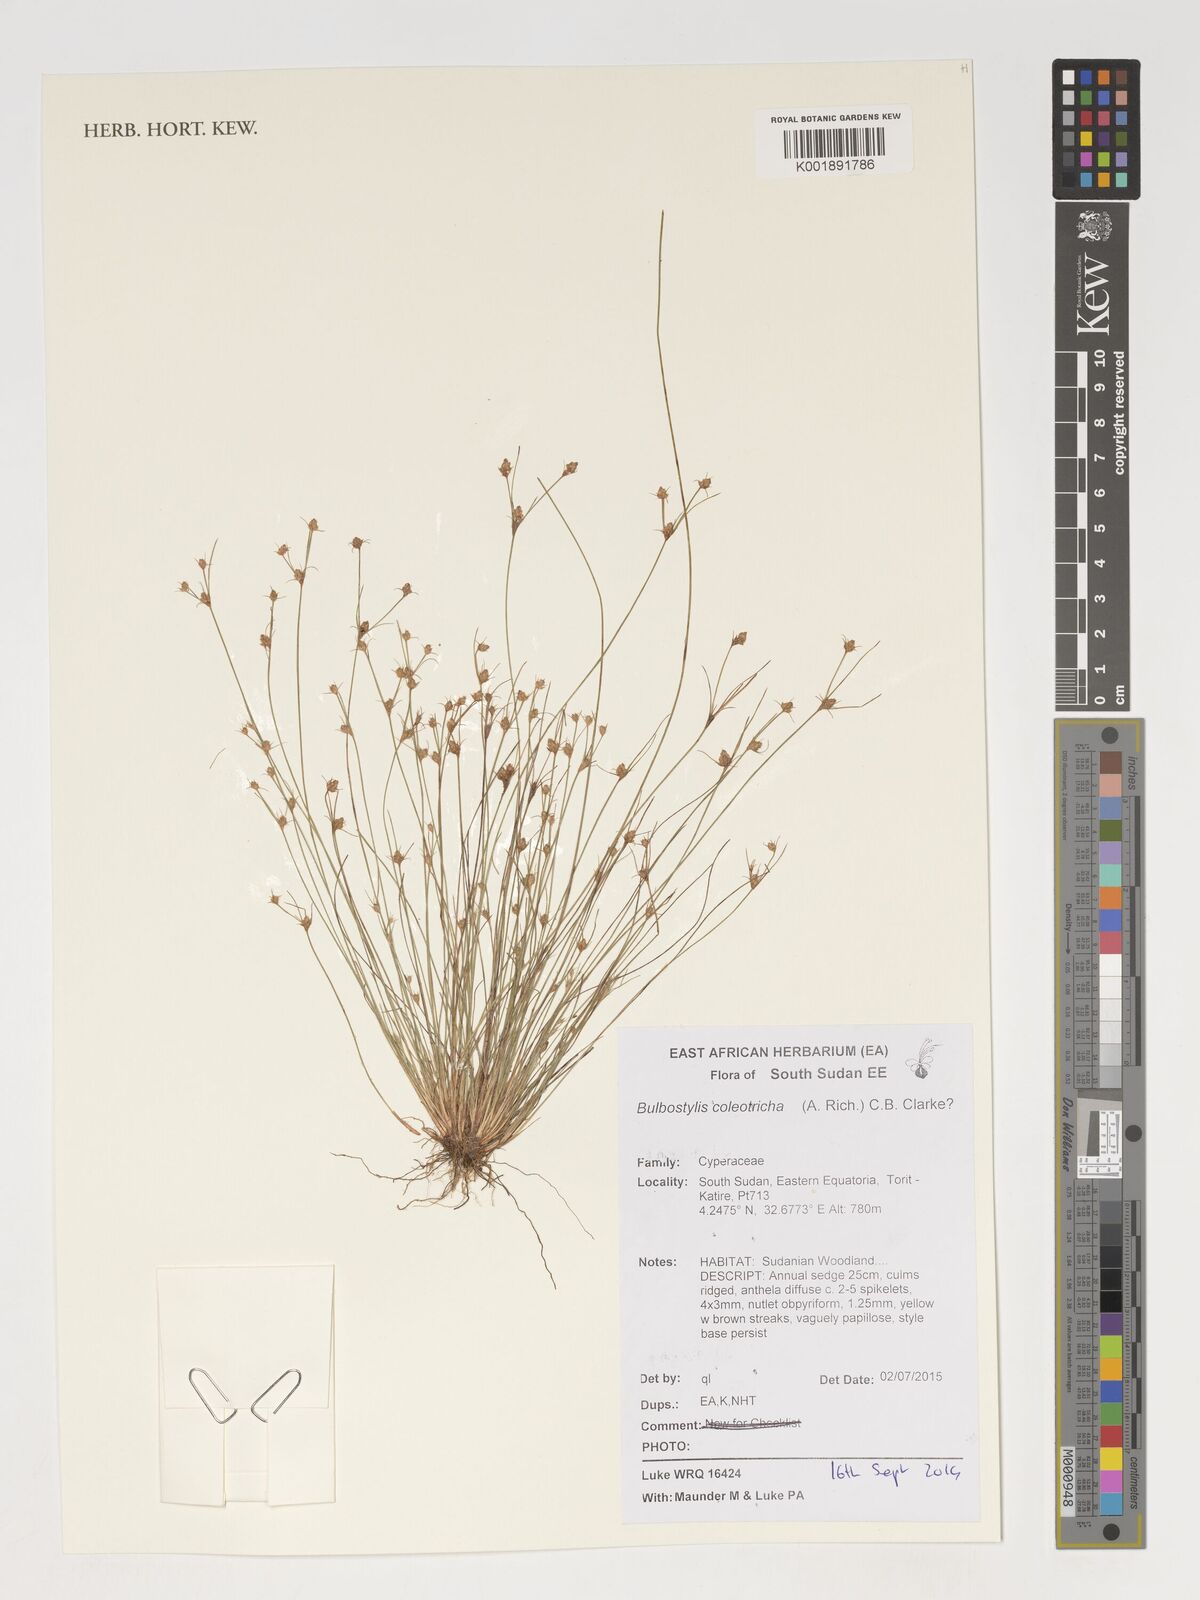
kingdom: Plantae
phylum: Tracheophyta
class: Liliopsida
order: Poales
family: Cyperaceae
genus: Bulbostylis
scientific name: Bulbostylis coleotricha
